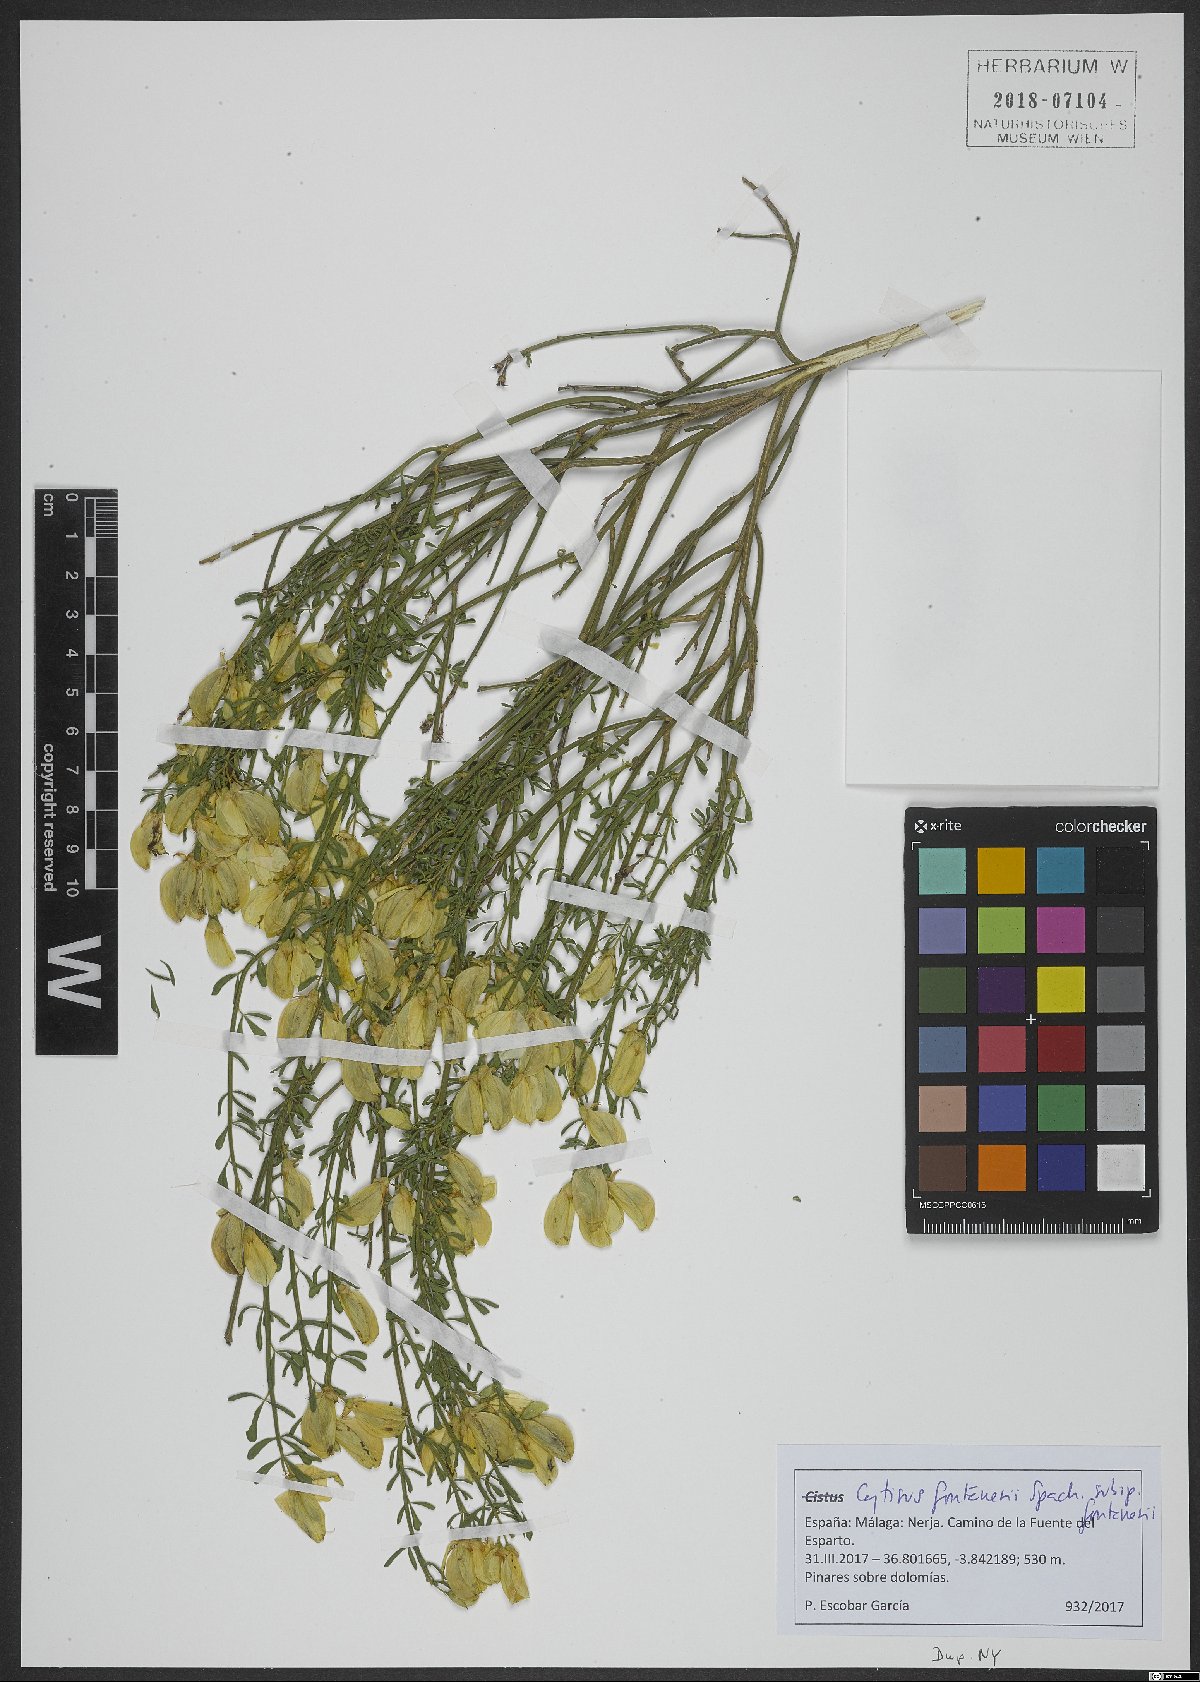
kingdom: Plantae
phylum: Tracheophyta
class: Magnoliopsida
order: Fabales
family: Fabaceae
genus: Cytisus
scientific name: Cytisus fontanesii
